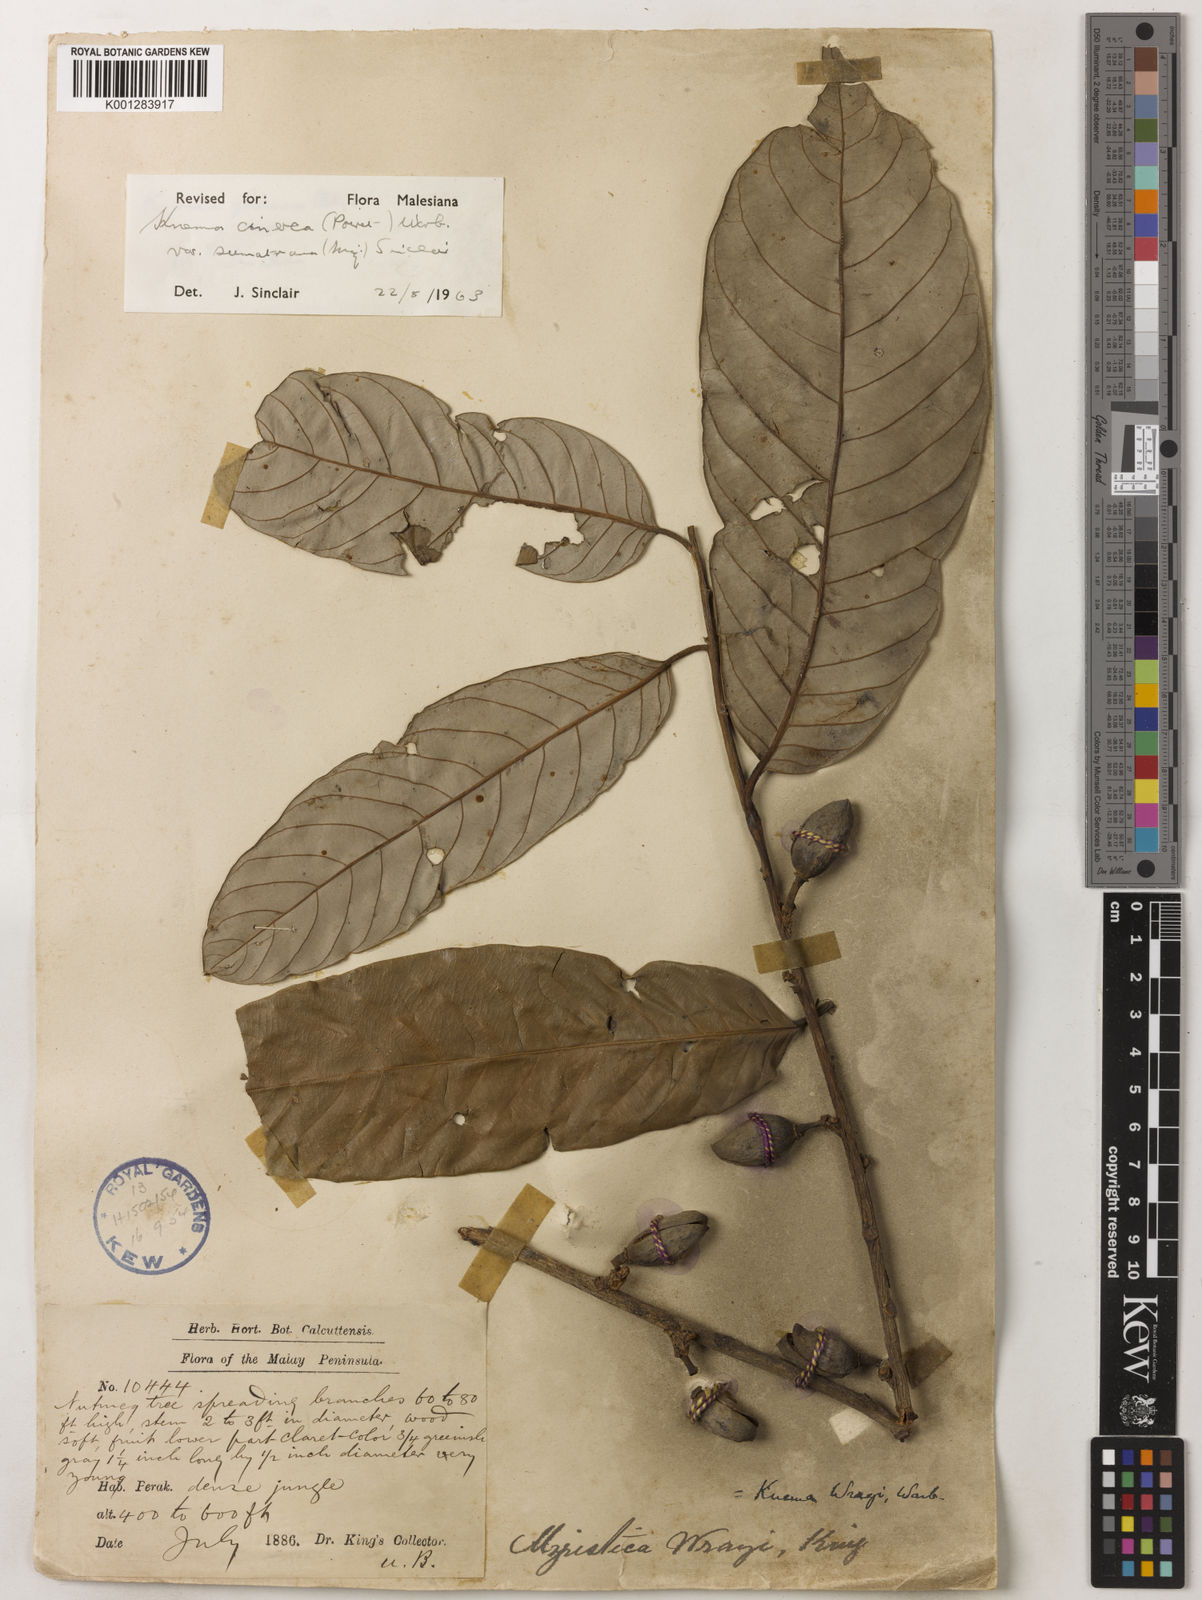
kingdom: Plantae
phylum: Tracheophyta
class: Magnoliopsida
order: Magnoliales
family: Myristicaceae
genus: Knema
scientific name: Knema
